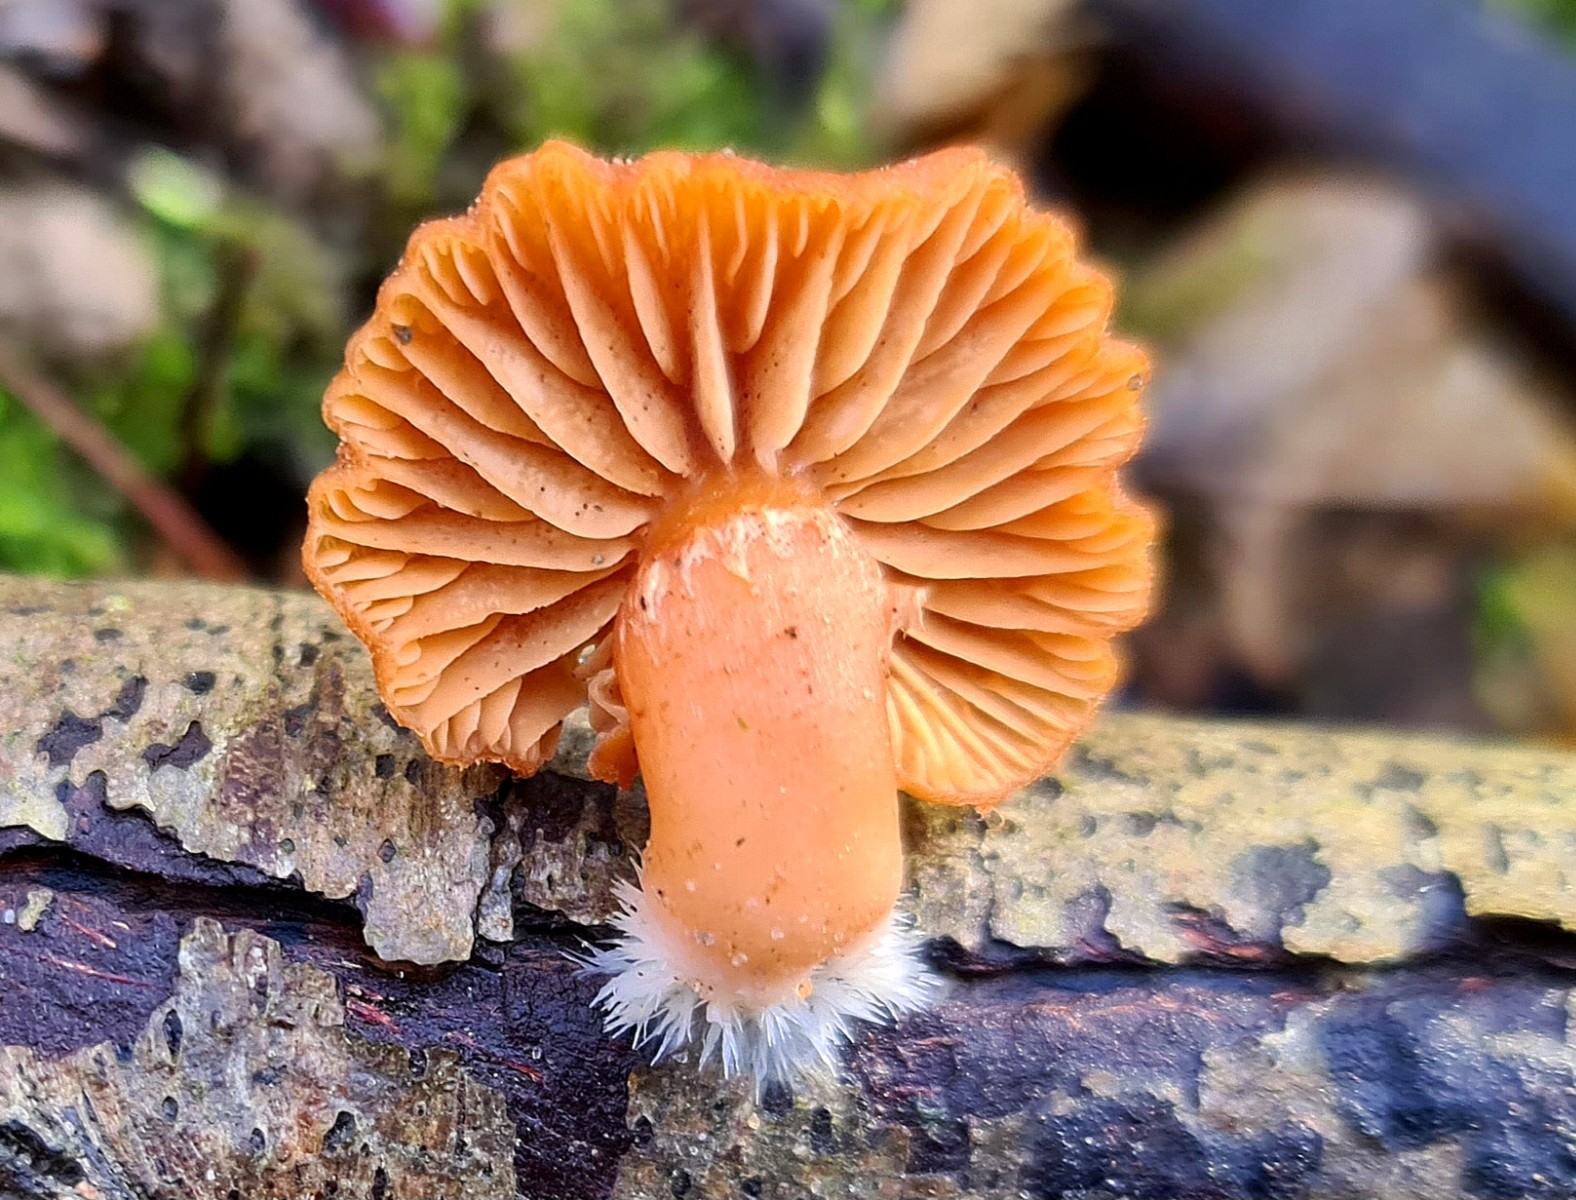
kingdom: Fungi
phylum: Basidiomycota
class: Agaricomycetes
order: Agaricales
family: Tubariaceae
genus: Tubaria
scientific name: Tubaria furfuracea
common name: kliddet fnughat
